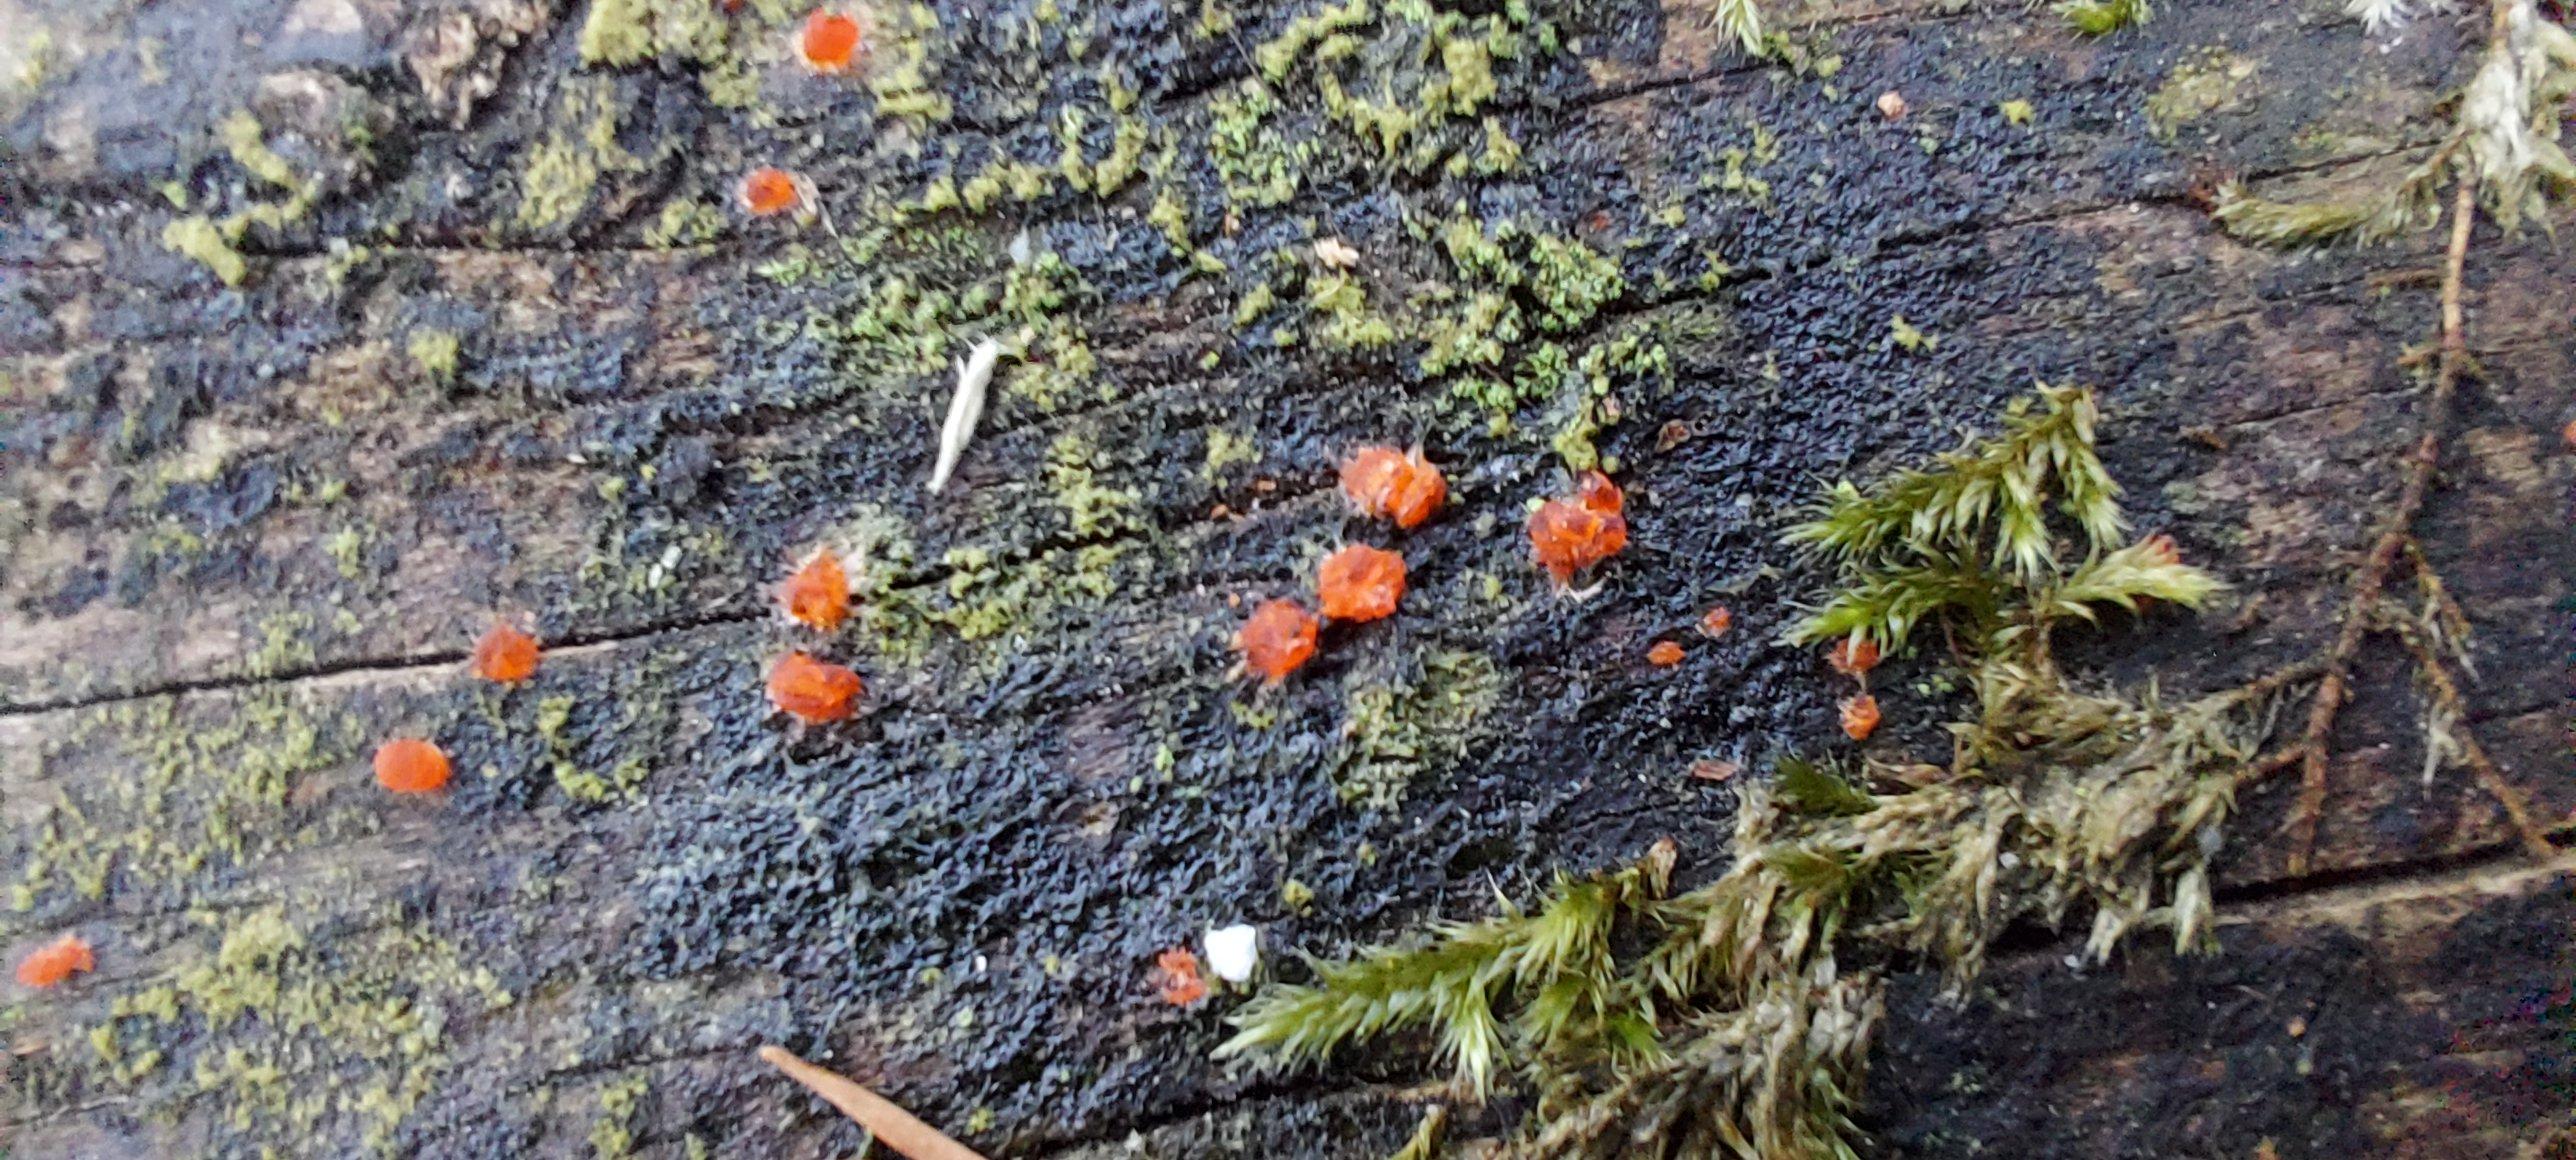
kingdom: Fungi
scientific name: Fungi
